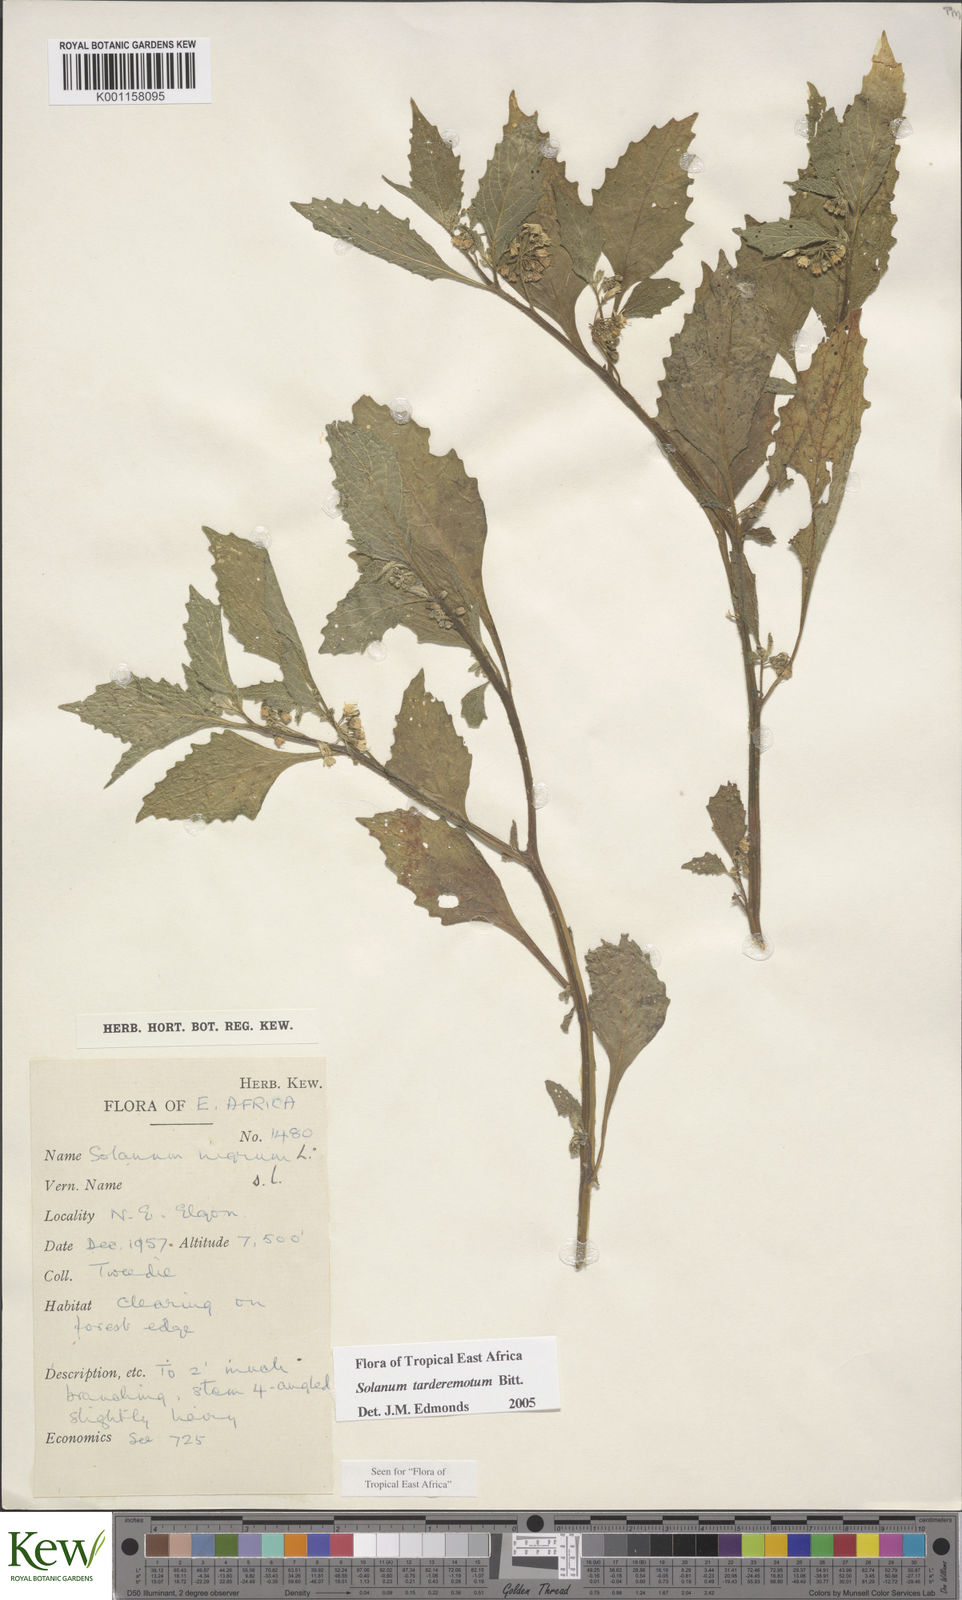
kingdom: Plantae
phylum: Tracheophyta
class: Magnoliopsida
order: Solanales
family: Solanaceae
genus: Solanum
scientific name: Solanum tarderemotum
